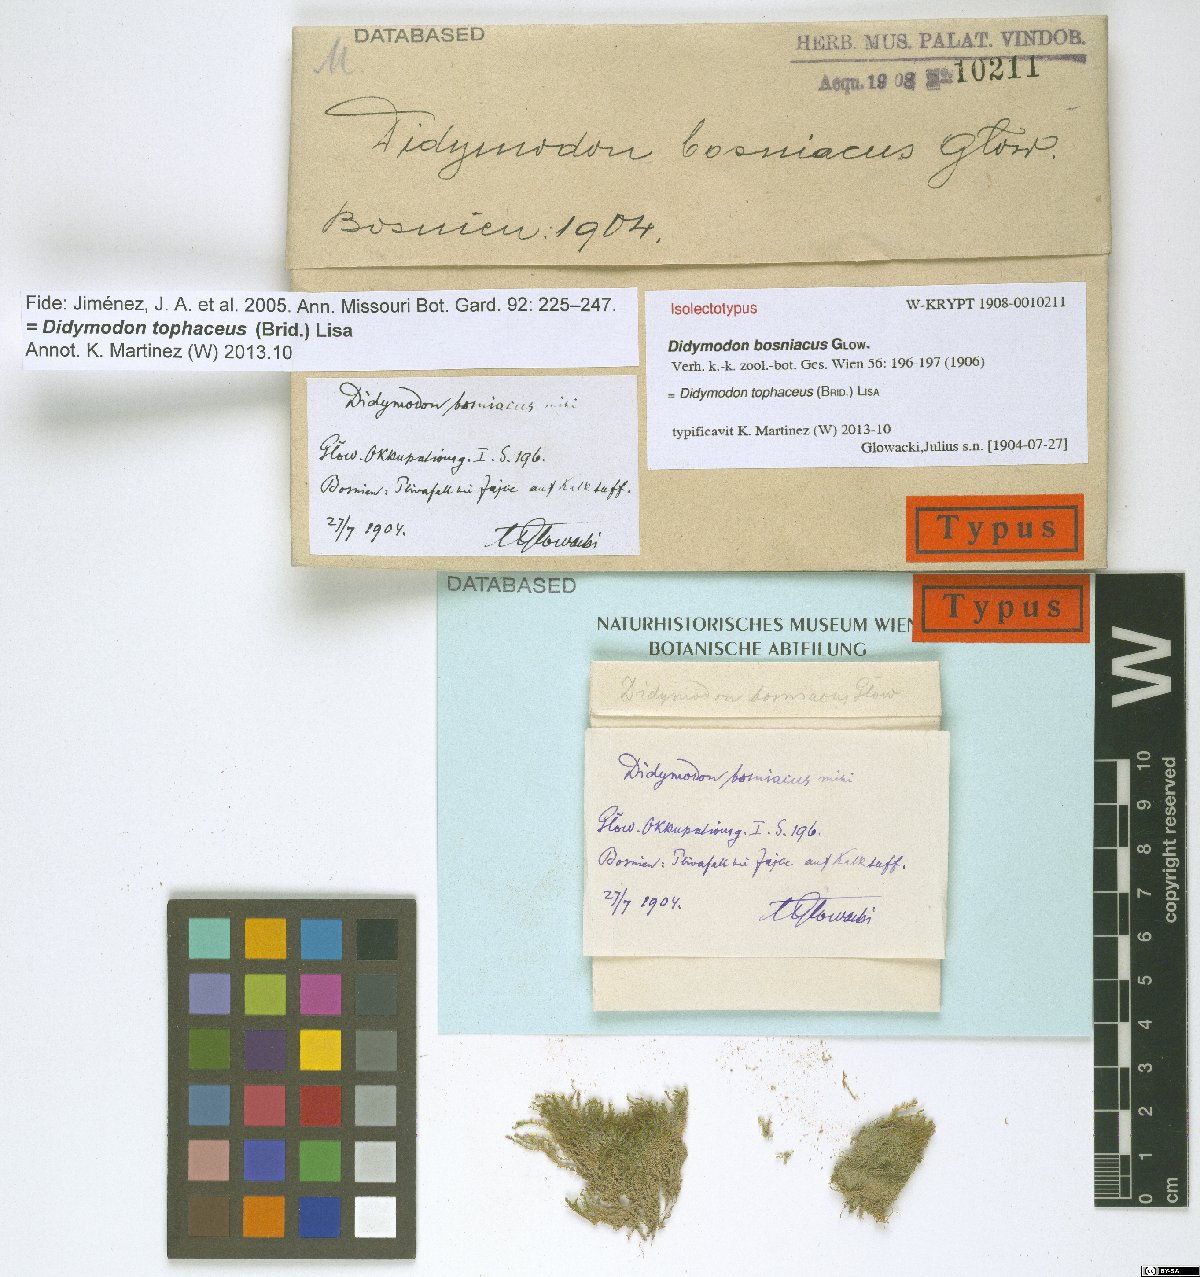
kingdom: Plantae
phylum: Bryophyta
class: Bryopsida
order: Pottiales
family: Pottiaceae
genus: Geheebia
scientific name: Geheebia tophacea
